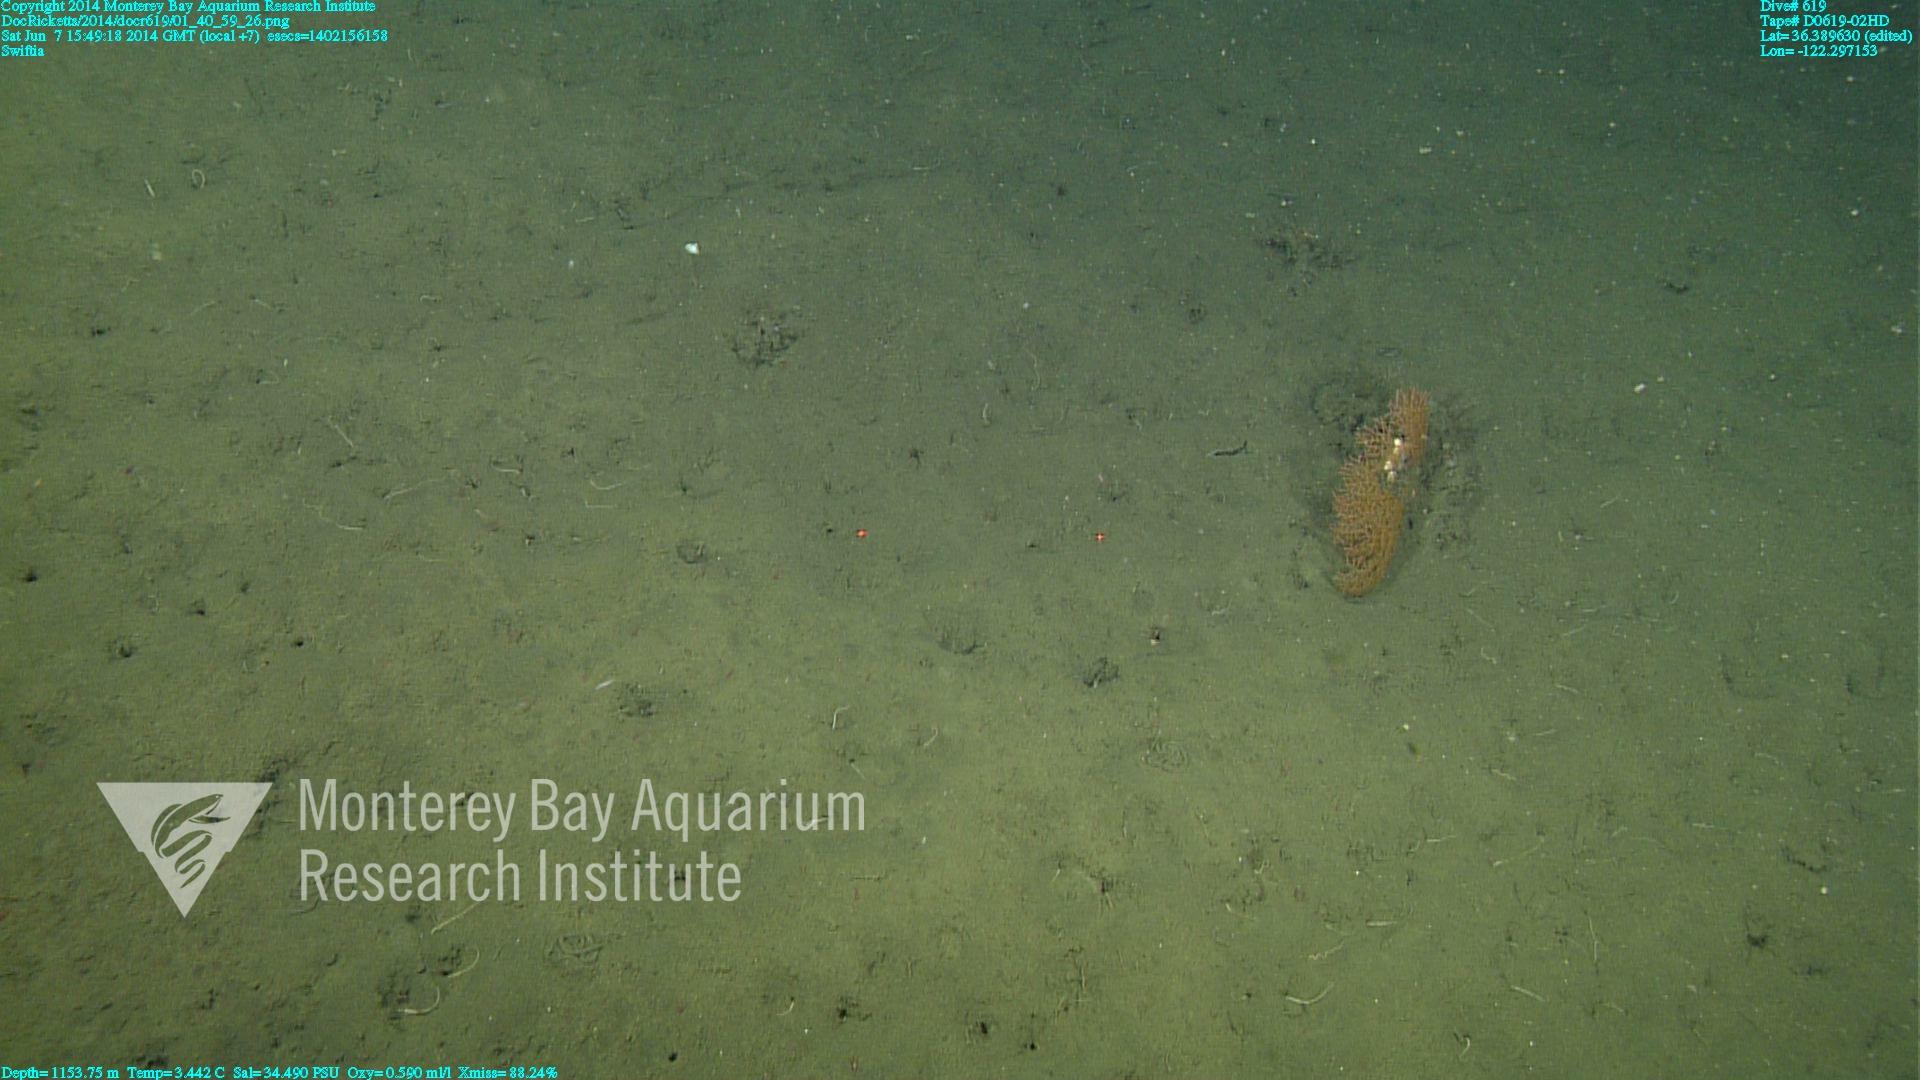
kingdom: Animalia
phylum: Cnidaria
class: Anthozoa
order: Malacalcyonacea
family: Gorgoniidae
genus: Callistephanus
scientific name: Callistephanus kofoidi
